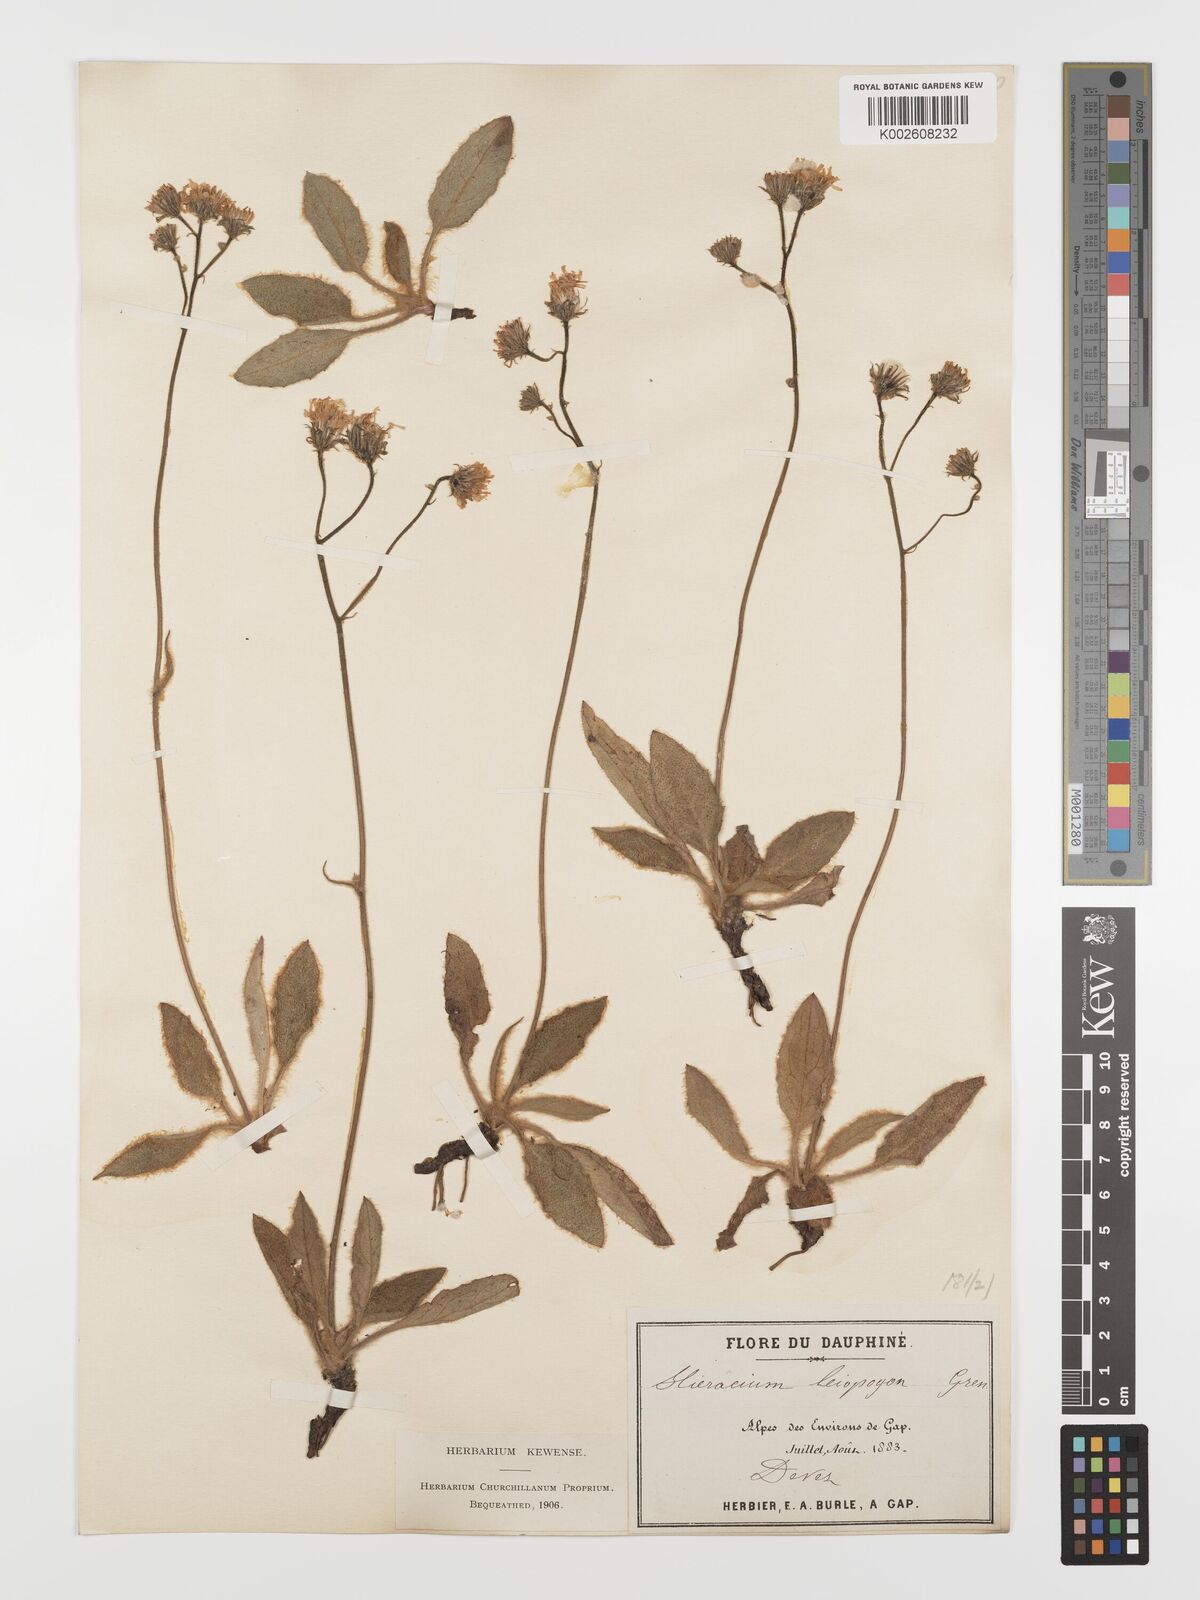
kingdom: Plantae
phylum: Tracheophyta
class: Magnoliopsida
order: Asterales
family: Asteraceae
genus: Hieracium
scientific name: Hieracium leiopogon
